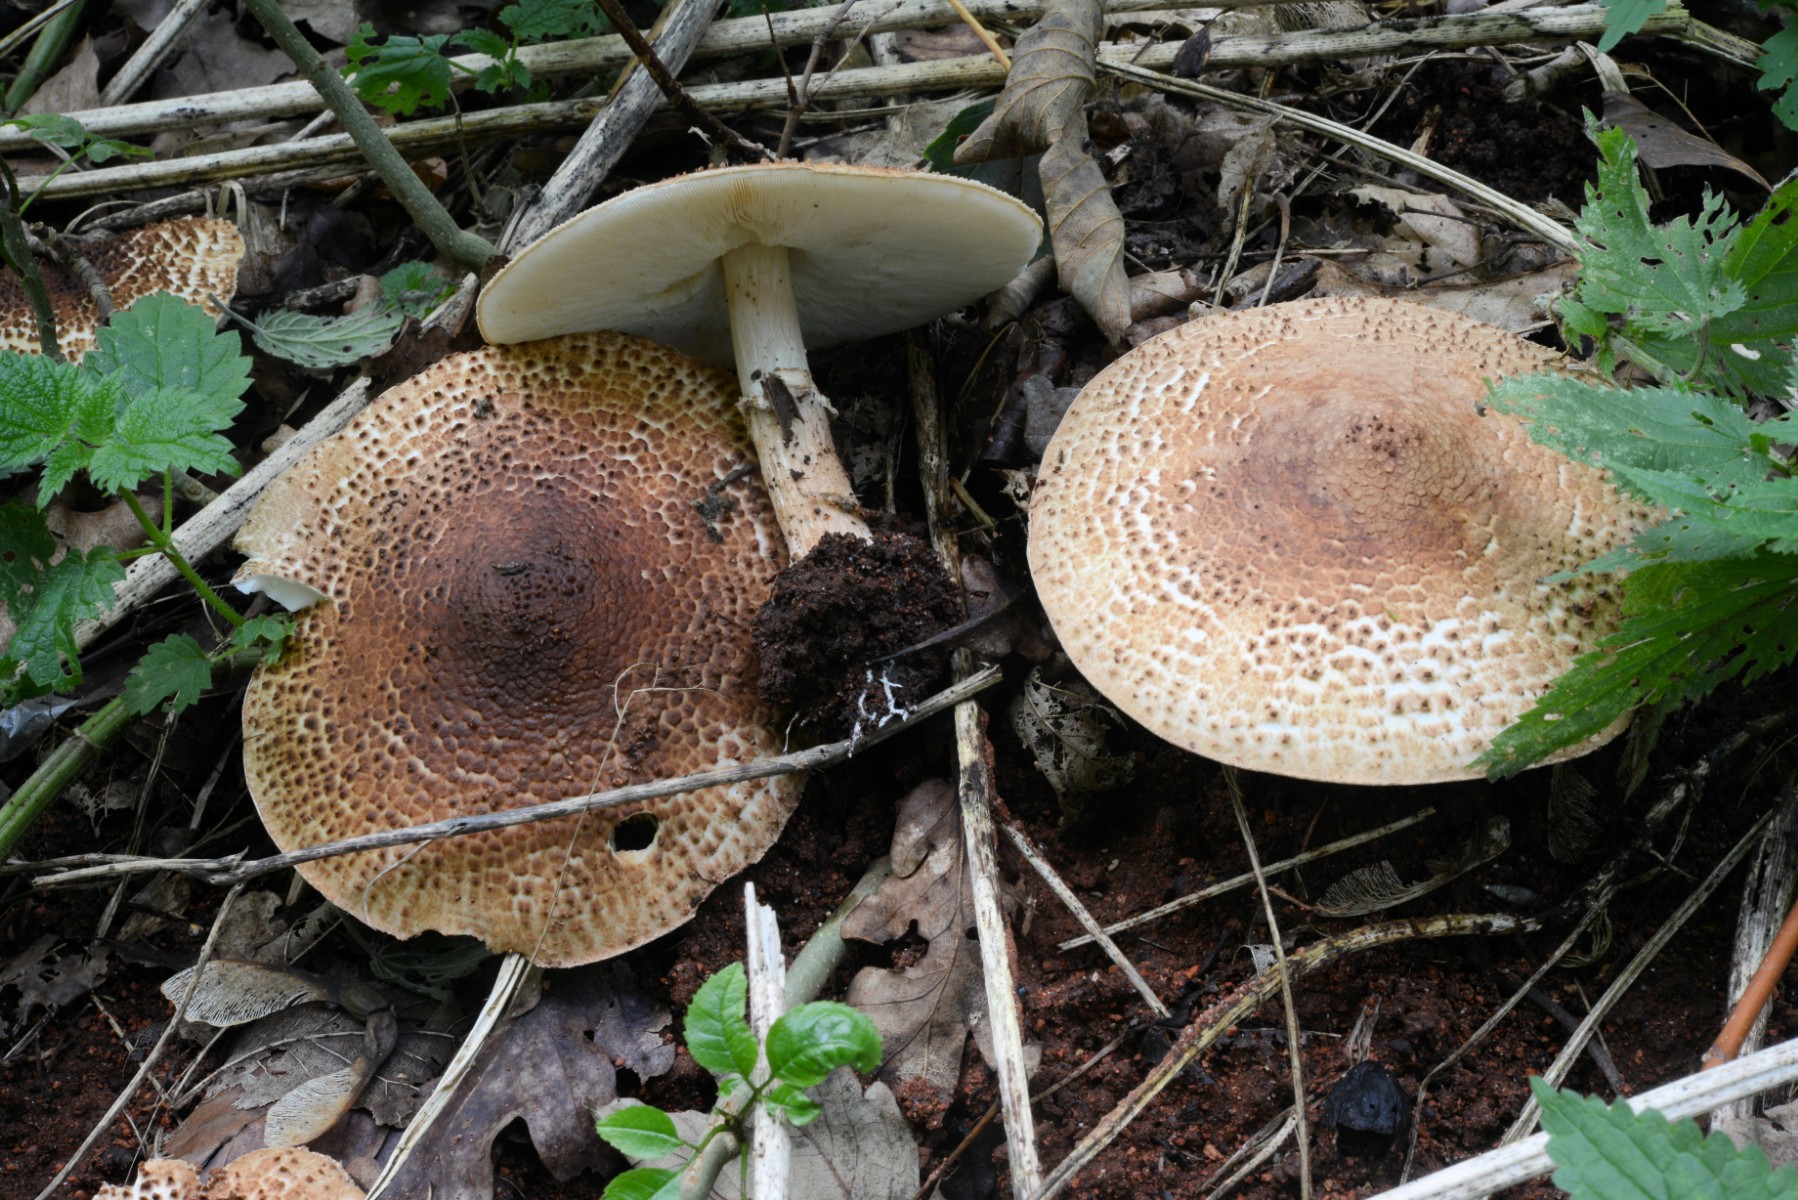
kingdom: Fungi
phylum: Basidiomycota
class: Agaricomycetes
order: Agaricales
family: Agaricaceae
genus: Echinoderma
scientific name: Echinoderma asperum
